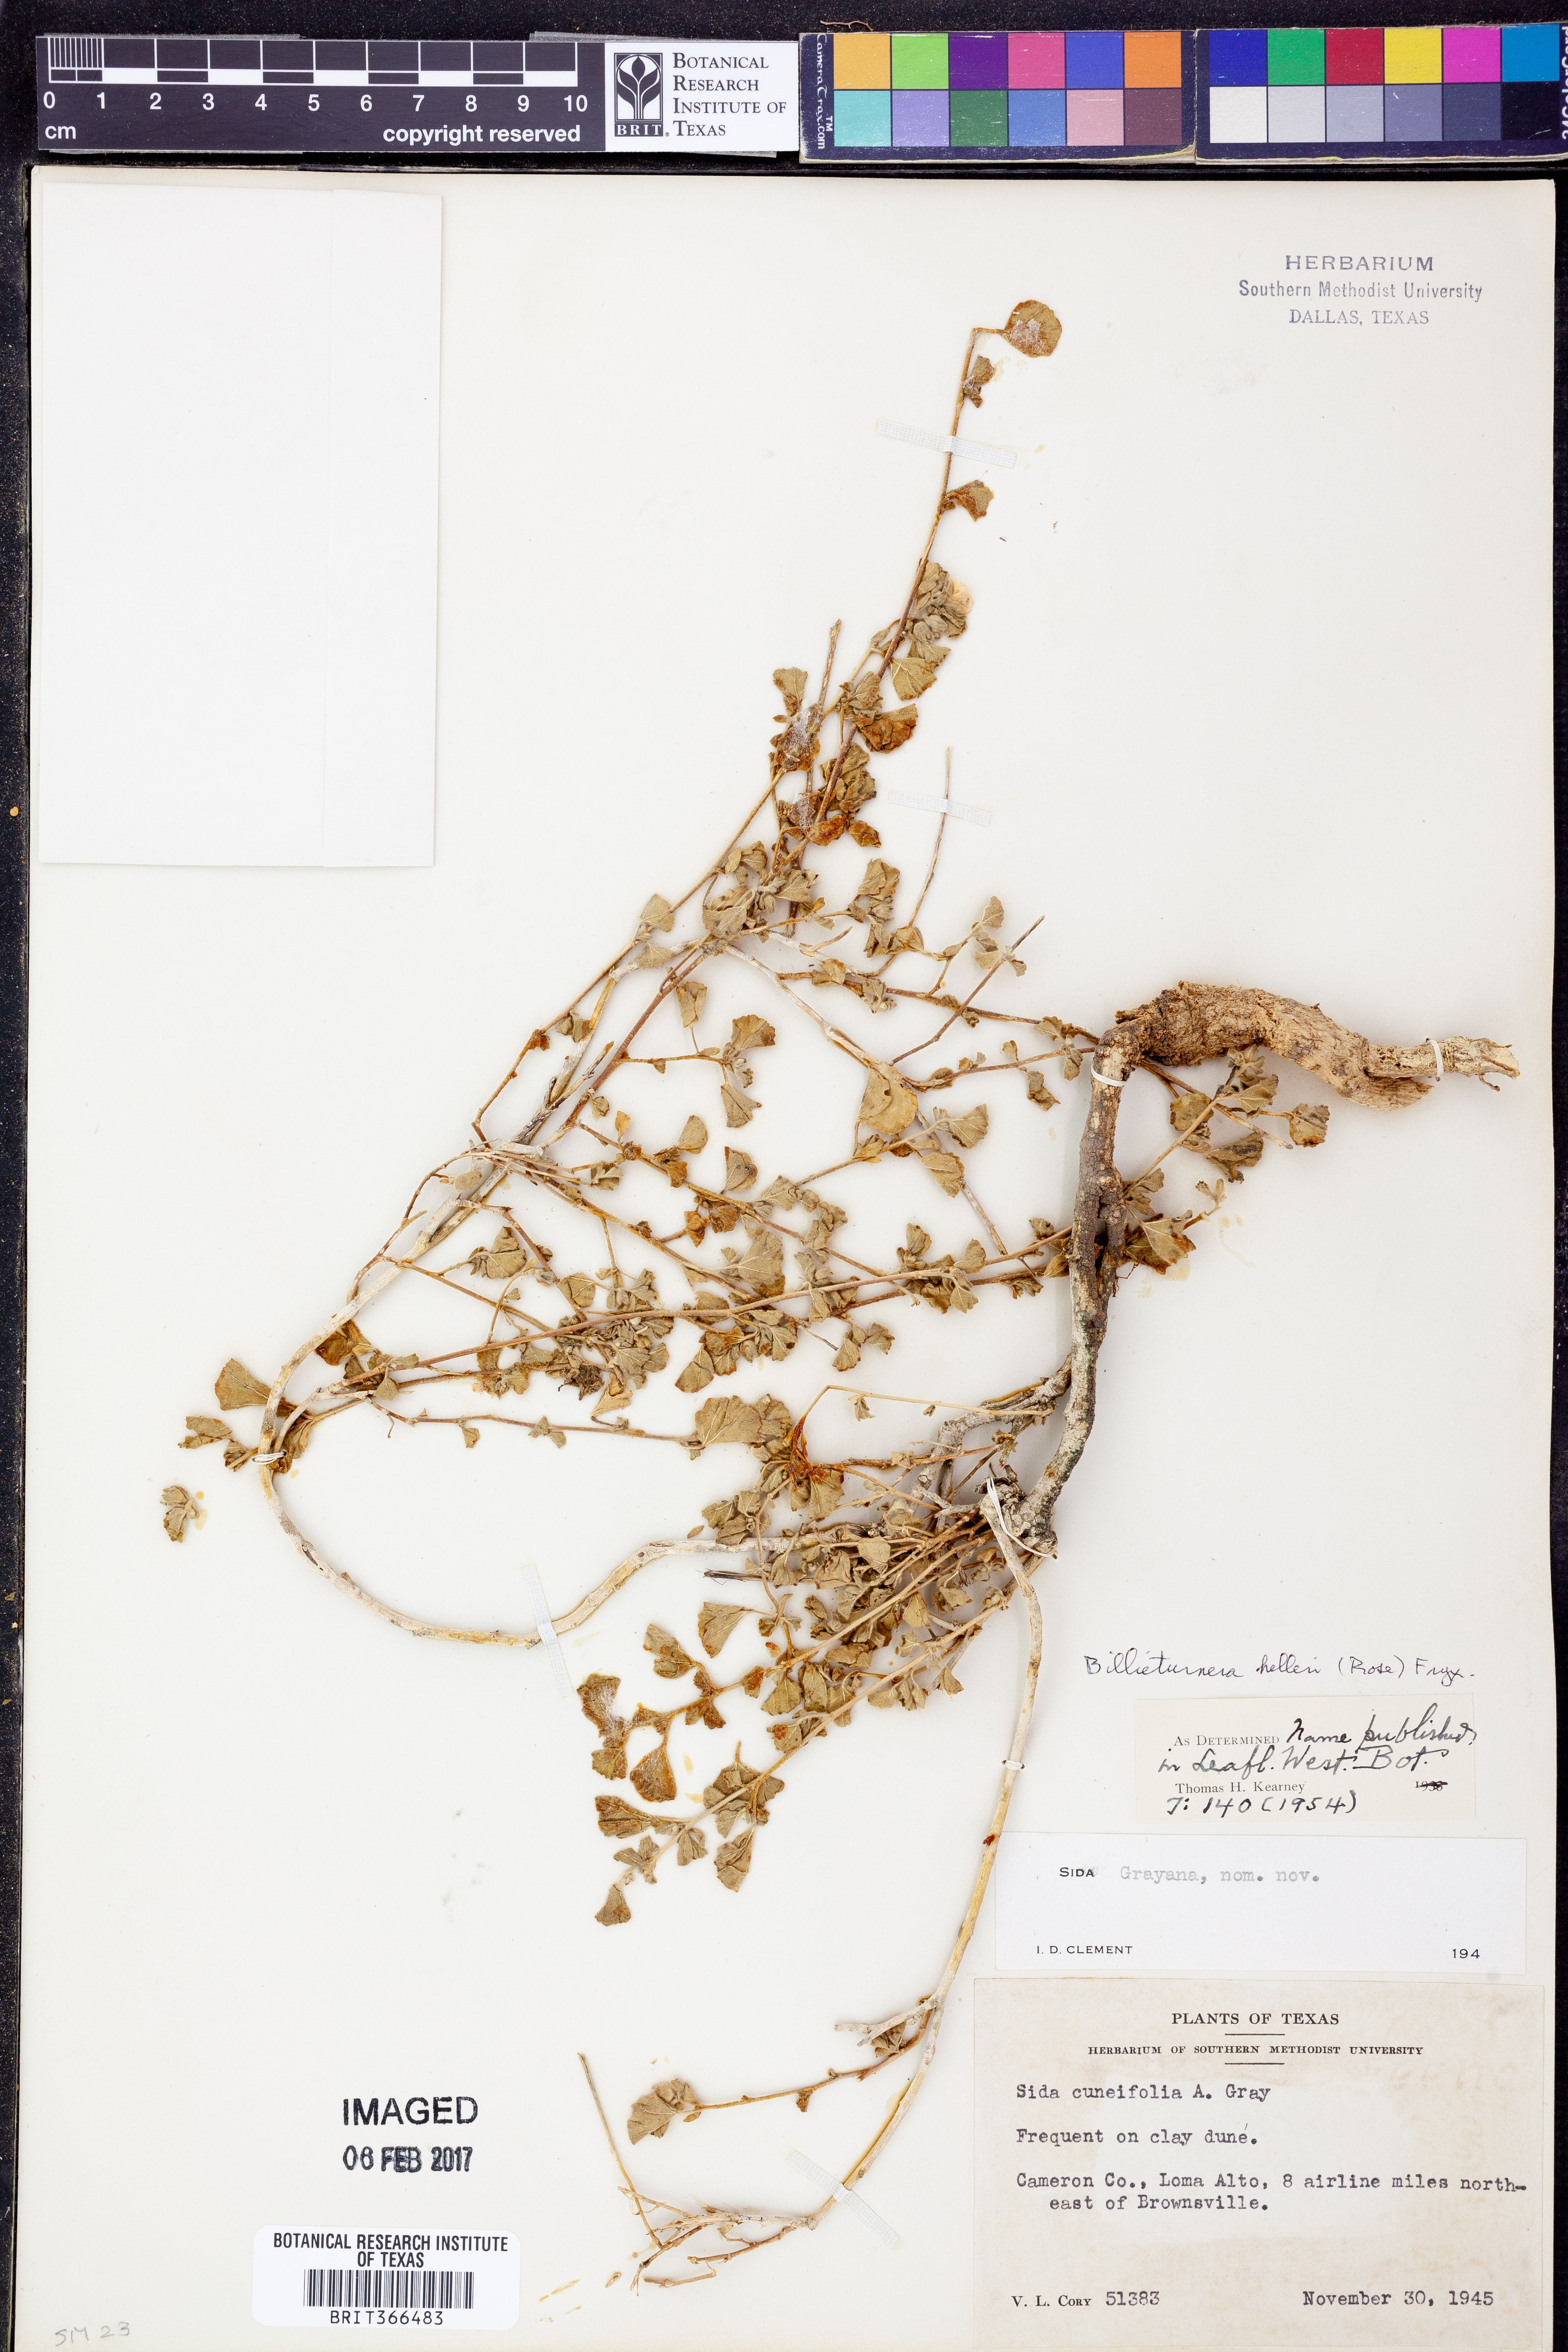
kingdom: Plantae
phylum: Tracheophyta
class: Magnoliopsida
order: Malvales
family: Malvaceae
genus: Billieturnera
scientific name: Billieturnera helleri
